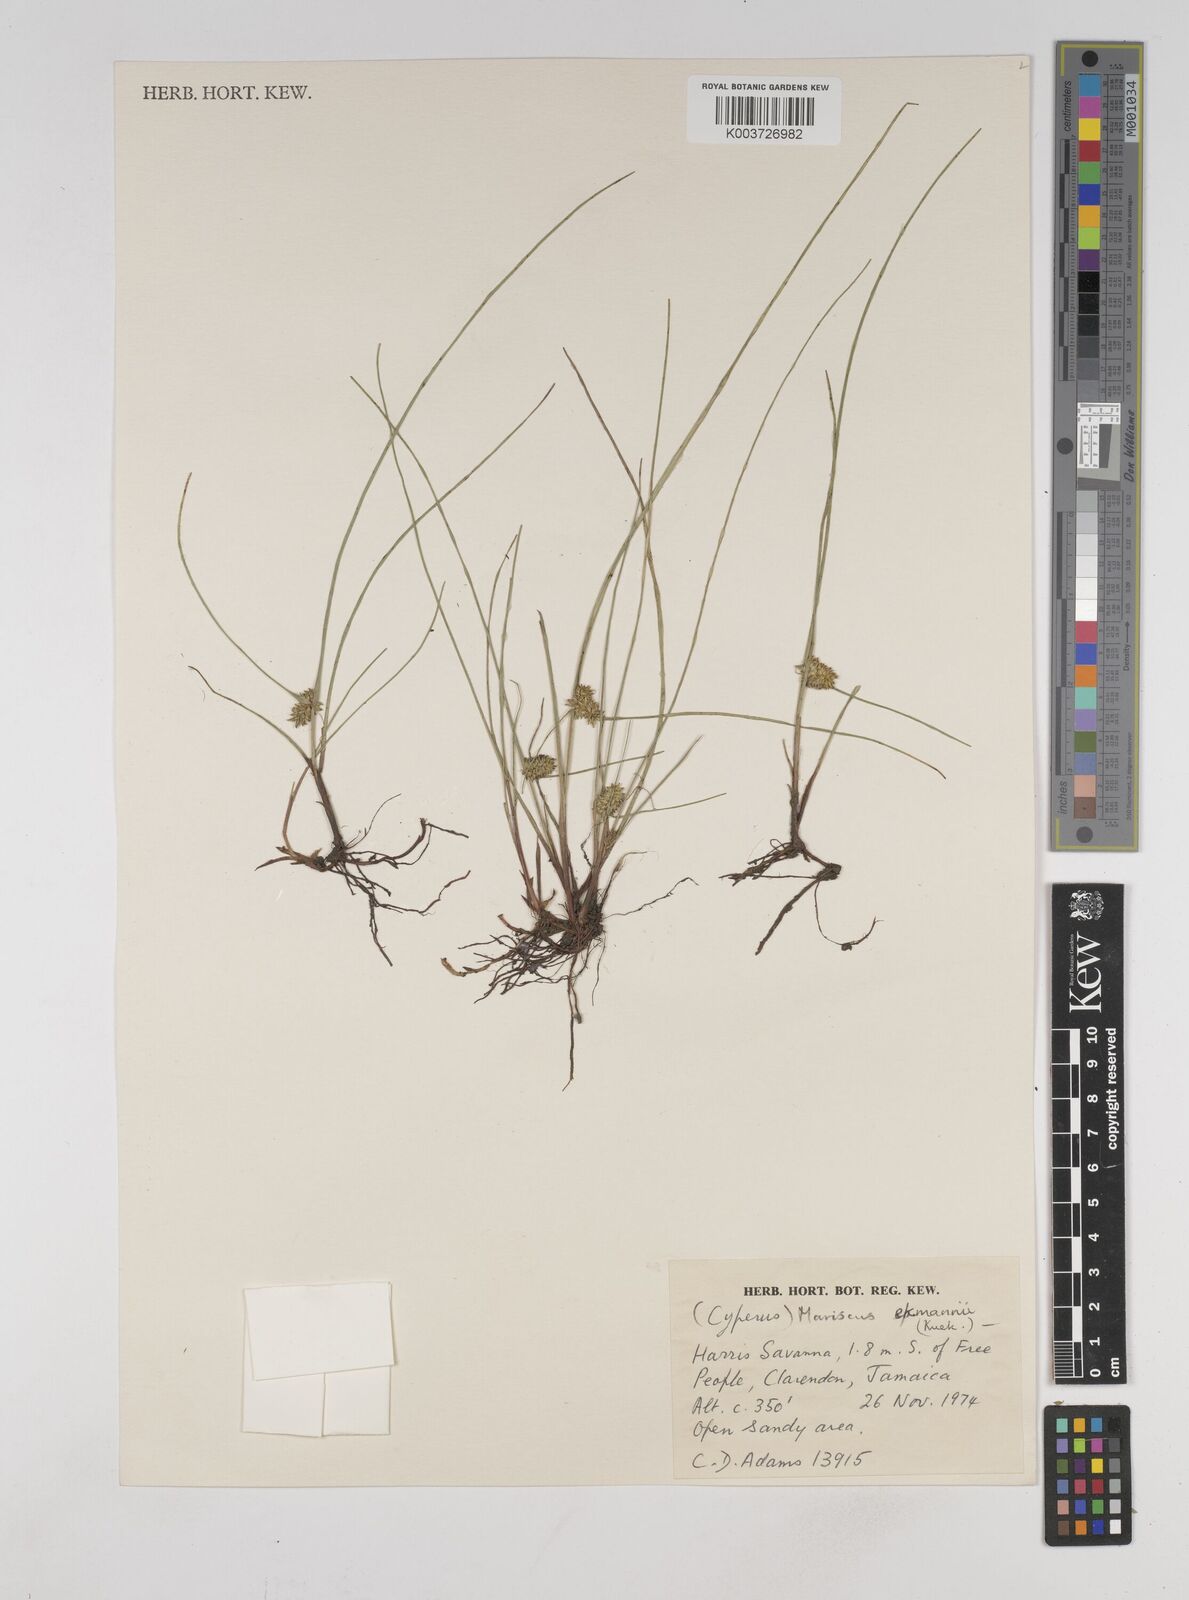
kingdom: Plantae
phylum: Tracheophyta
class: Liliopsida
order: Poales
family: Cyperaceae
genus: Cyperus
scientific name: Cyperus ekmanii
